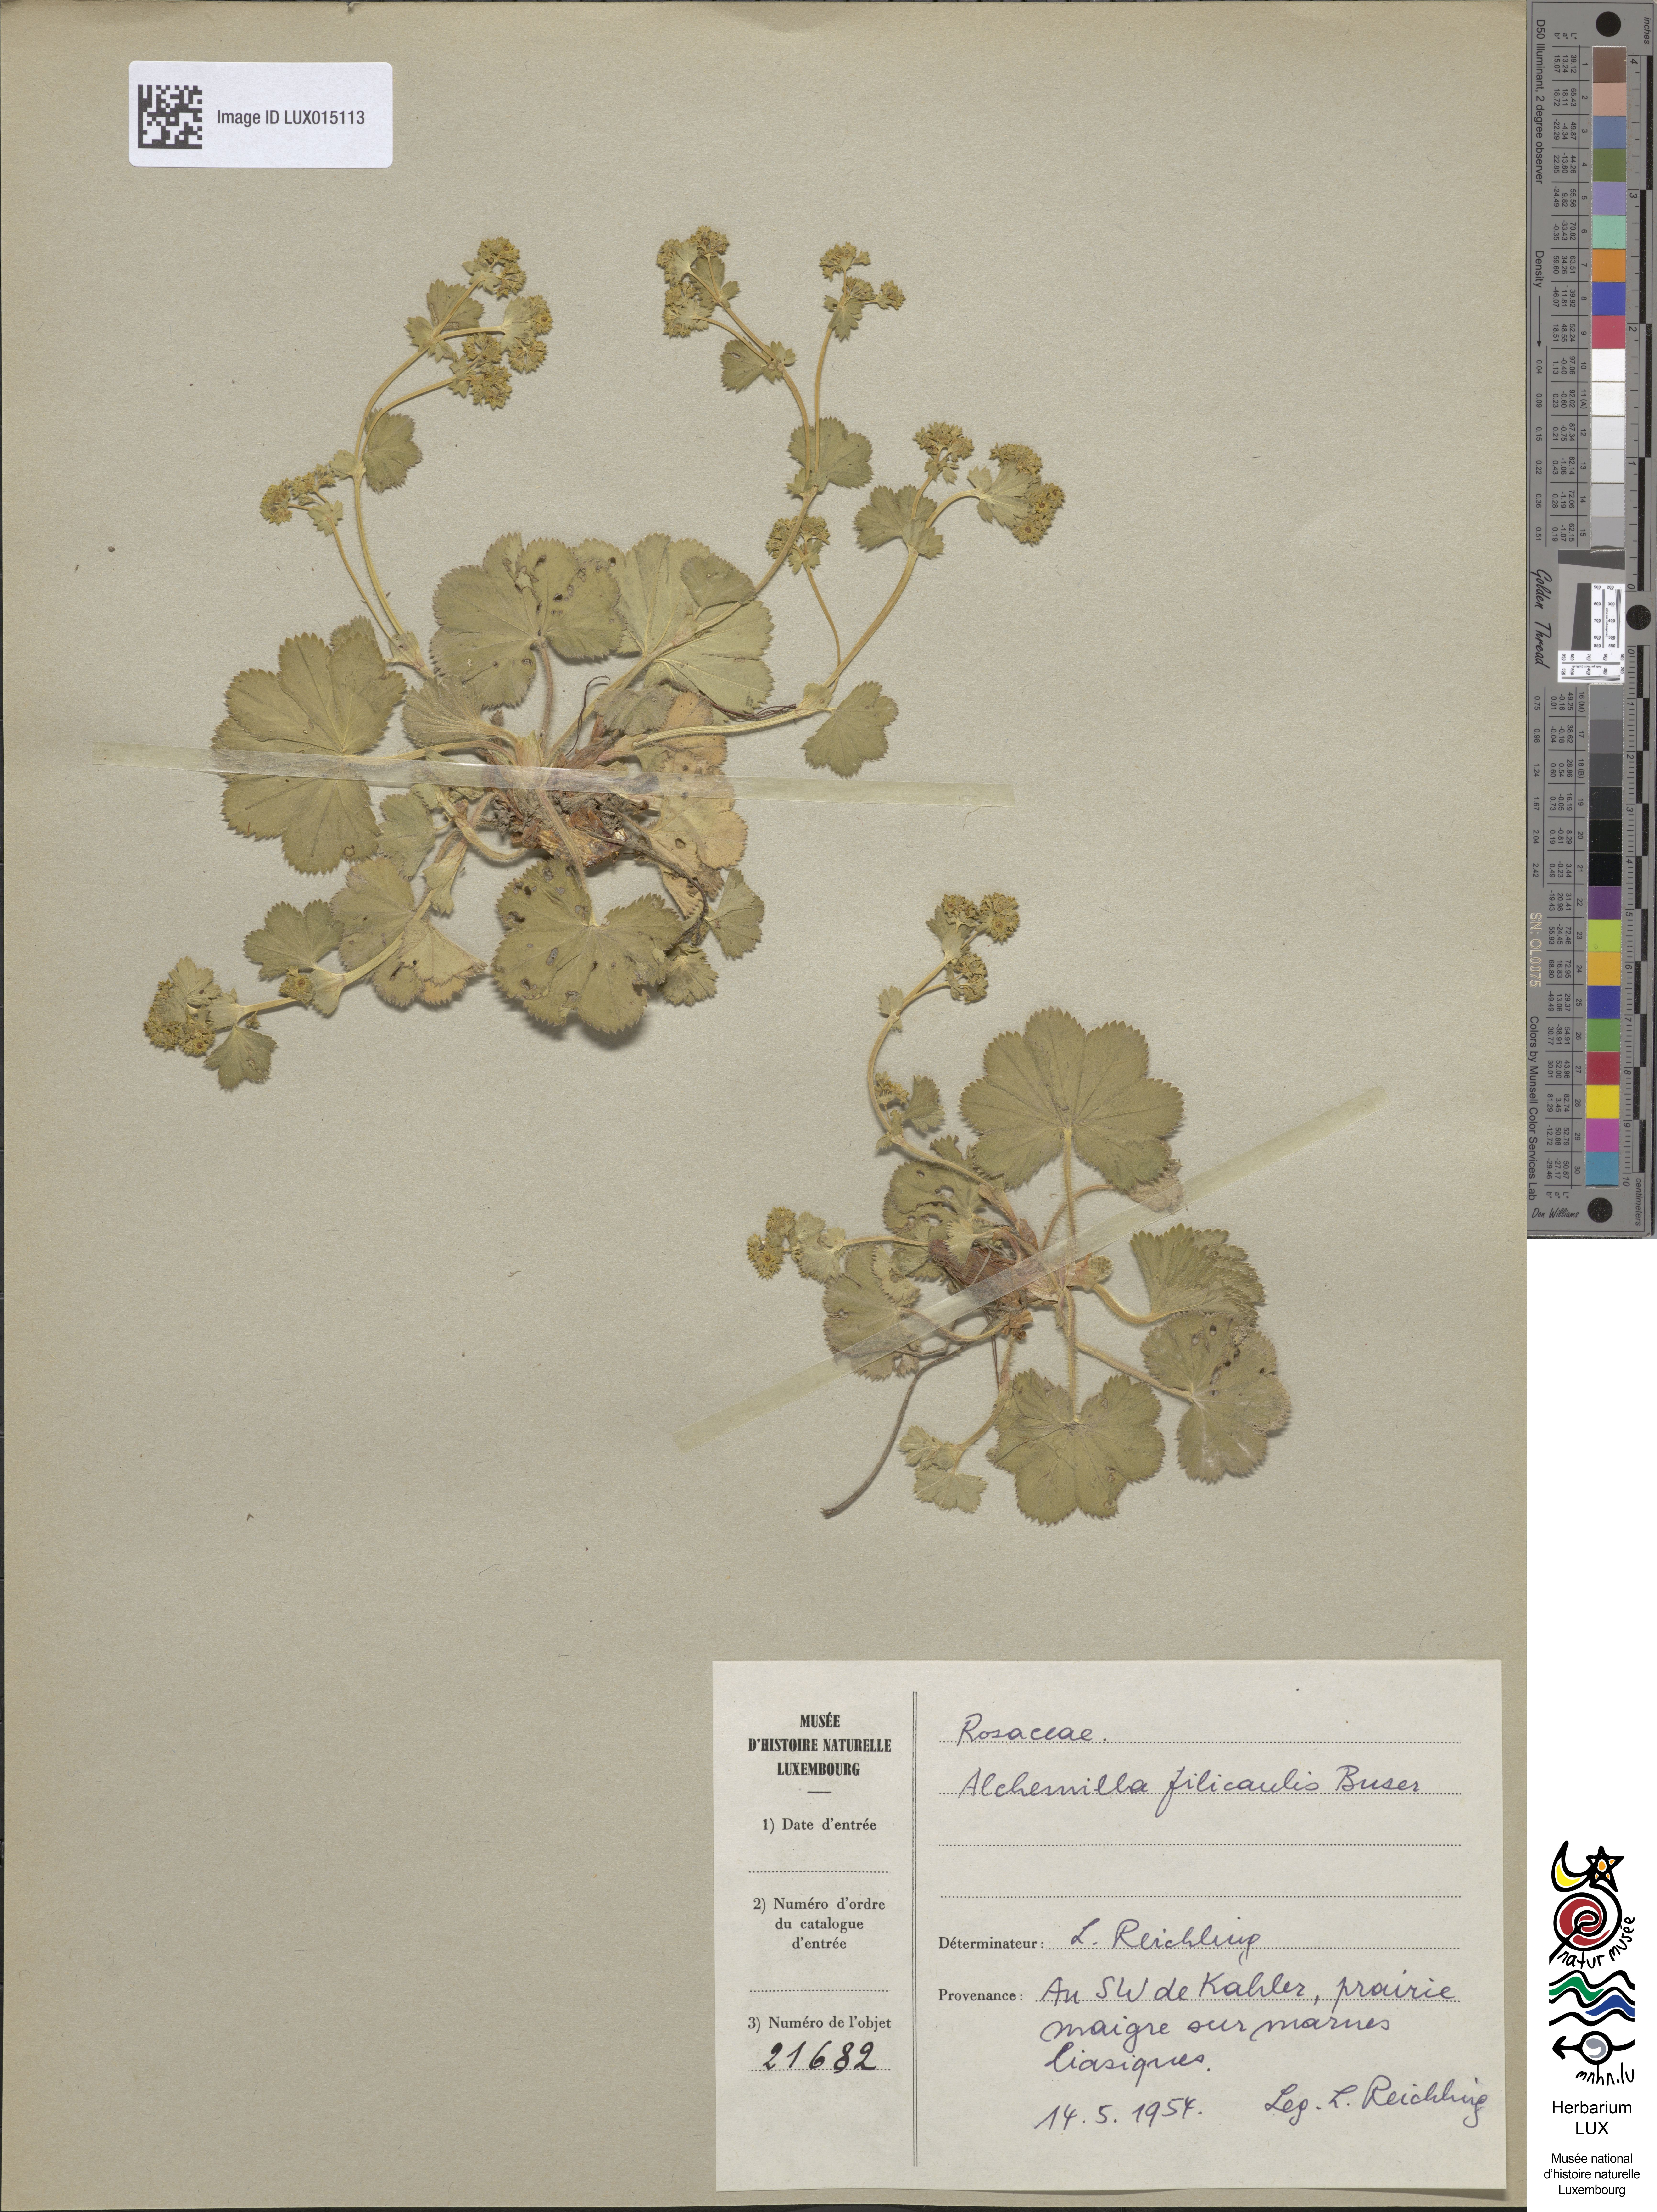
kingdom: Plantae
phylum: Tracheophyta
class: Magnoliopsida
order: Rosales
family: Rosaceae
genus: Alchemilla
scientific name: Alchemilla filicaulis
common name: Hairy lady's-mantle
